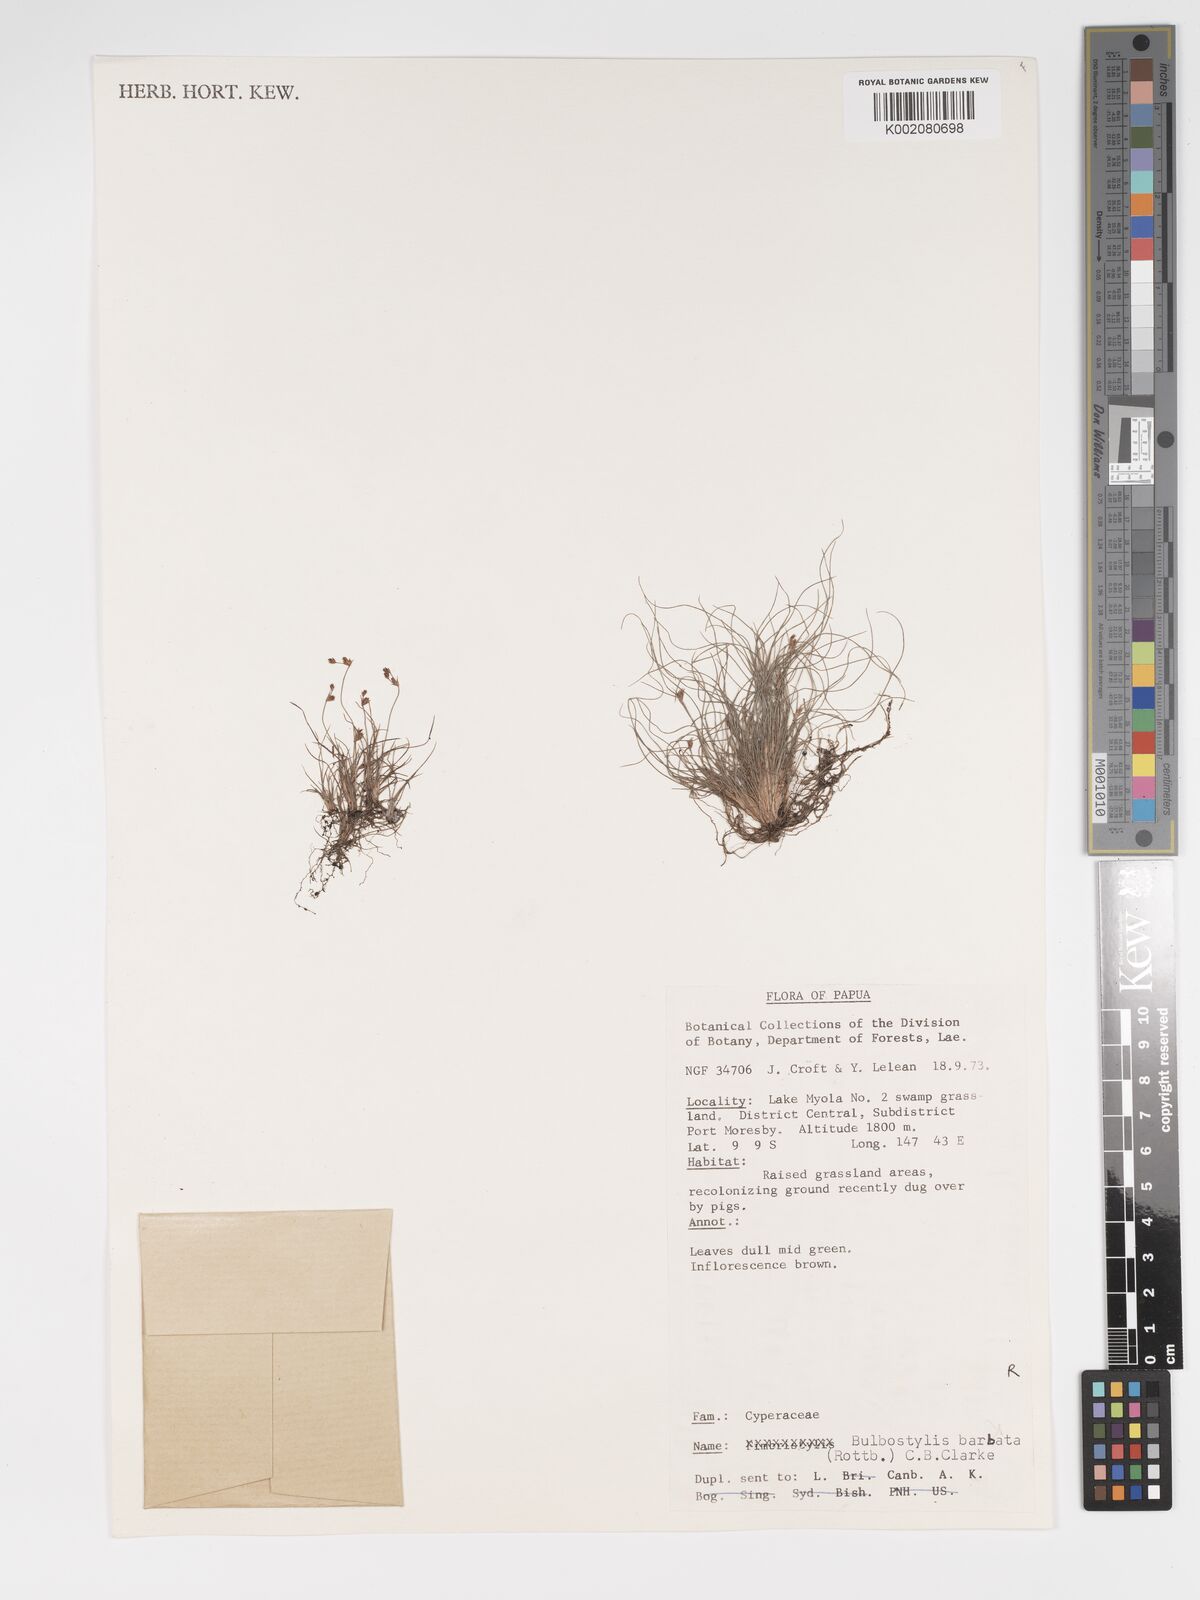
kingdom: Plantae
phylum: Tracheophyta
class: Liliopsida
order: Poales
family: Cyperaceae
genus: Bulbostylis
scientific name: Bulbostylis densa
